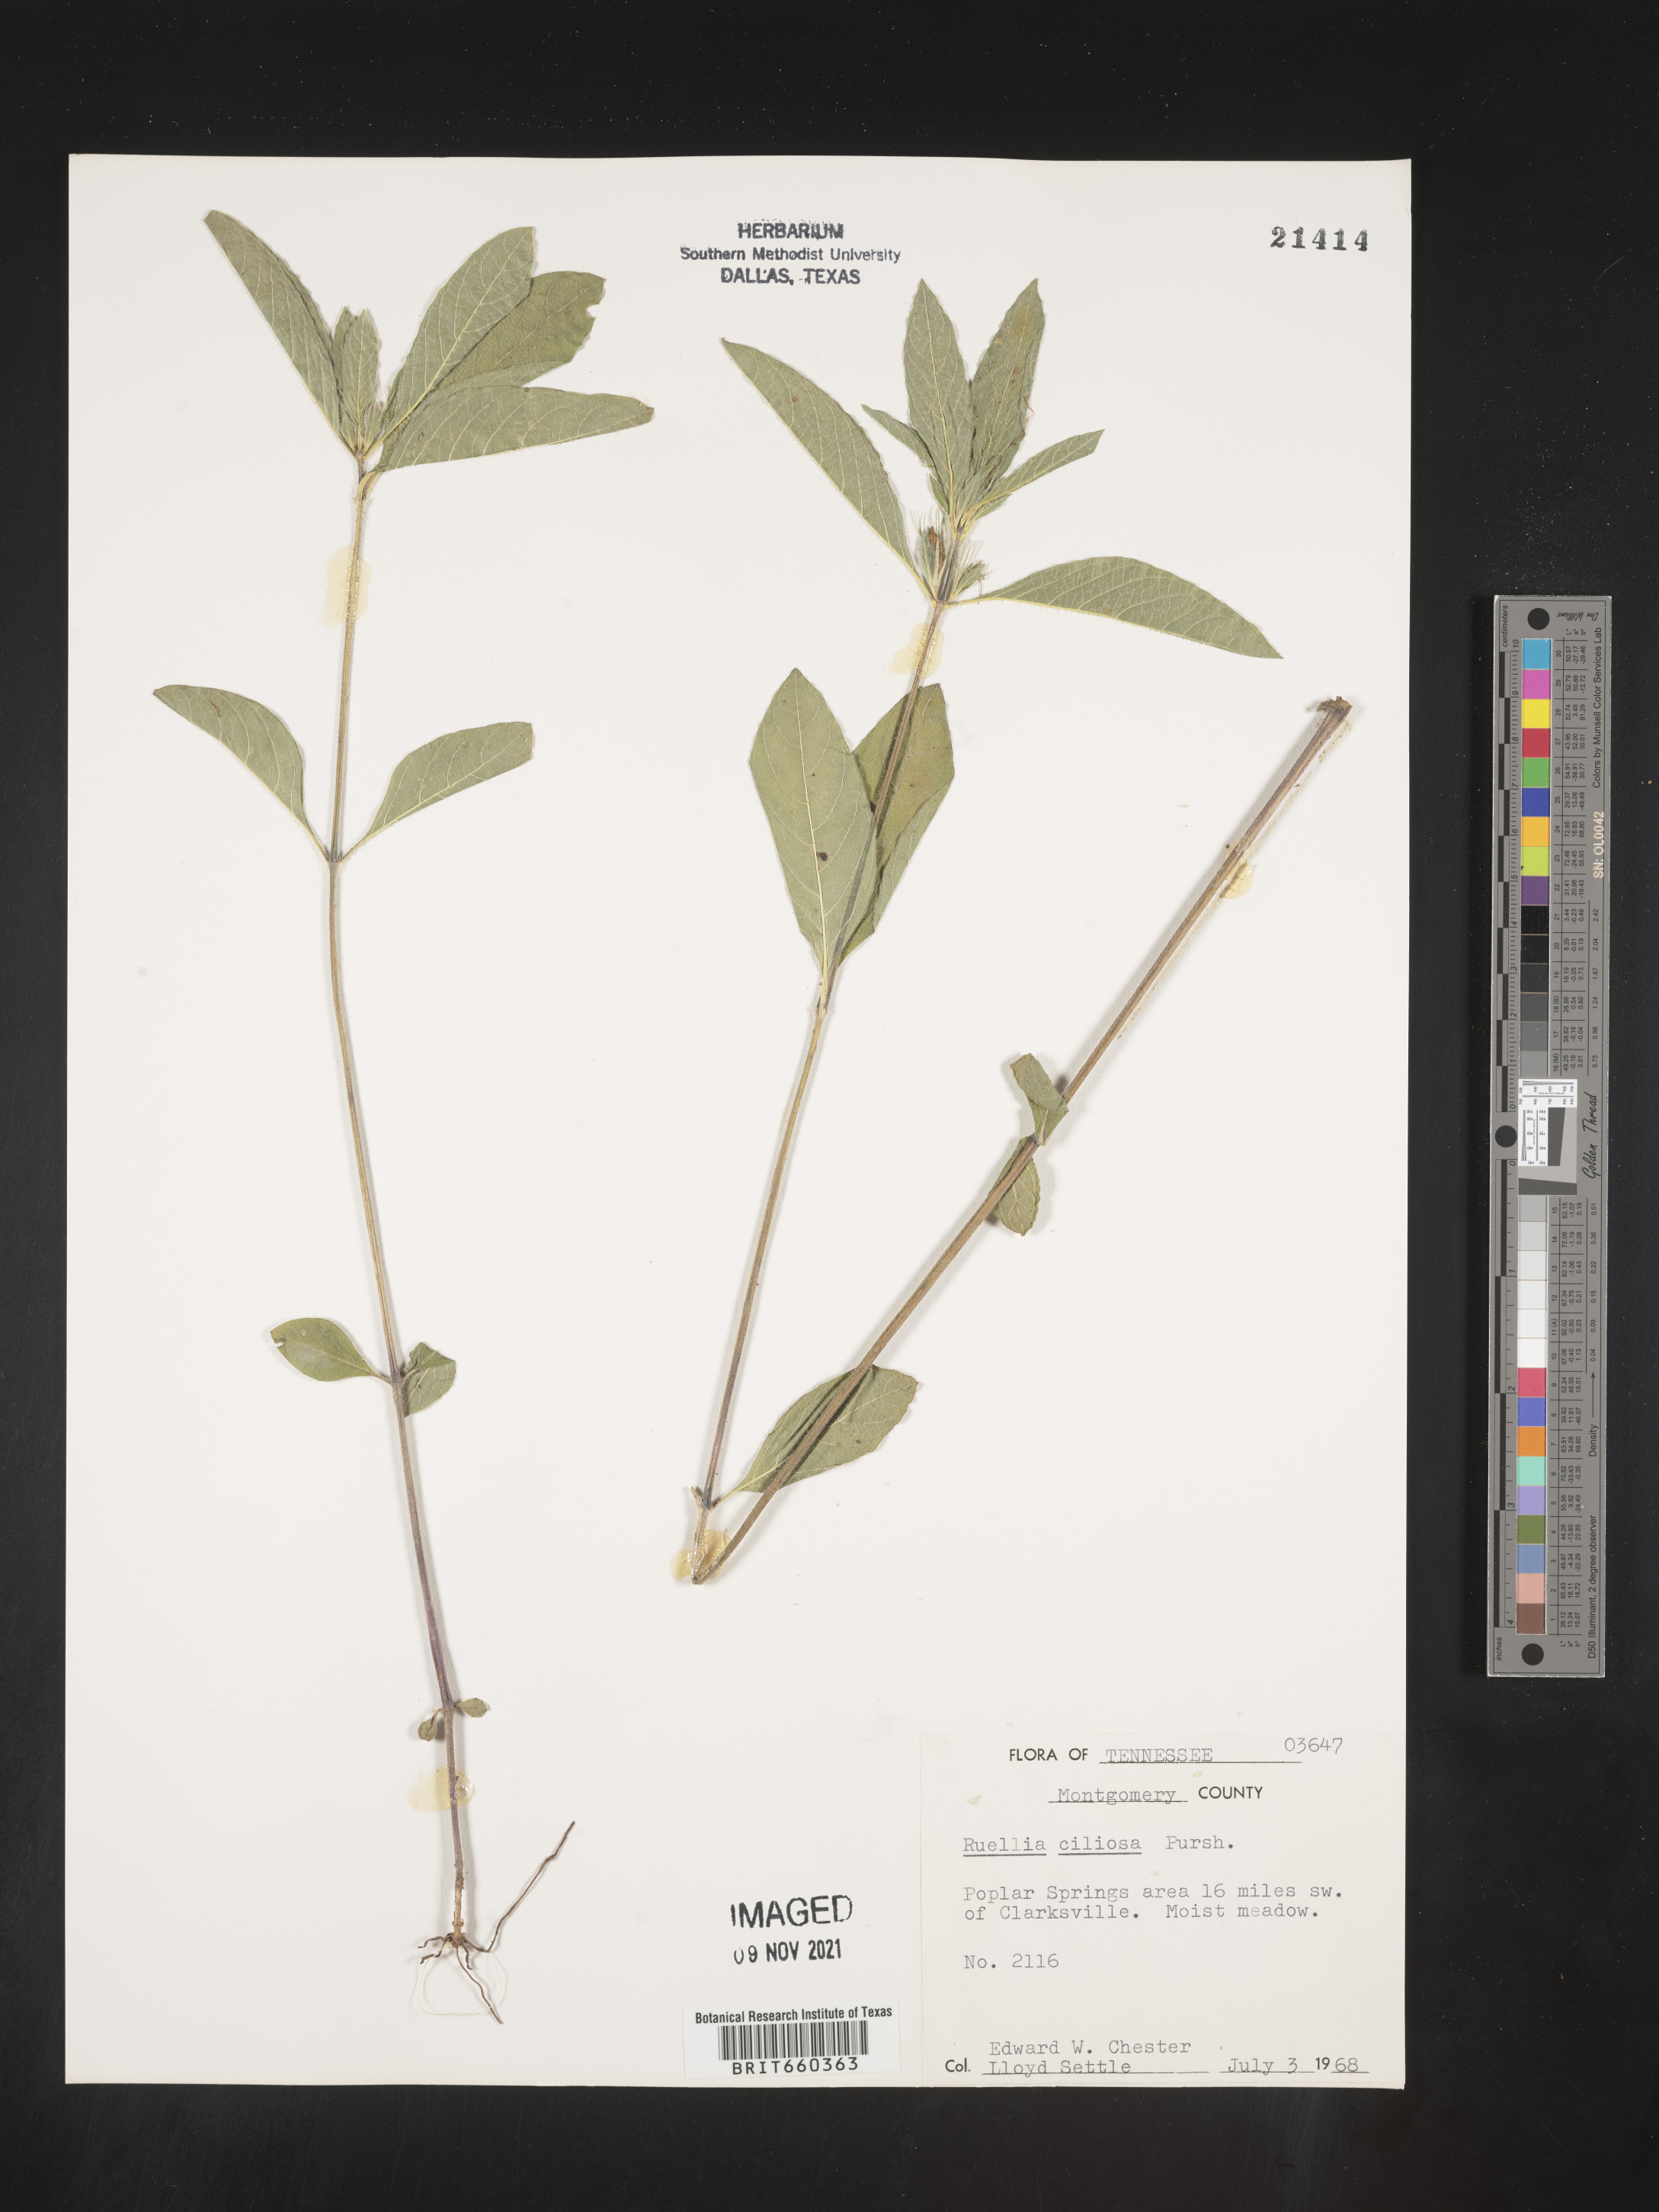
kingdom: Plantae
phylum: Tracheophyta
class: Magnoliopsida
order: Lamiales
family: Acanthaceae
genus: Ruellia
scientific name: Ruellia caroliniensis
